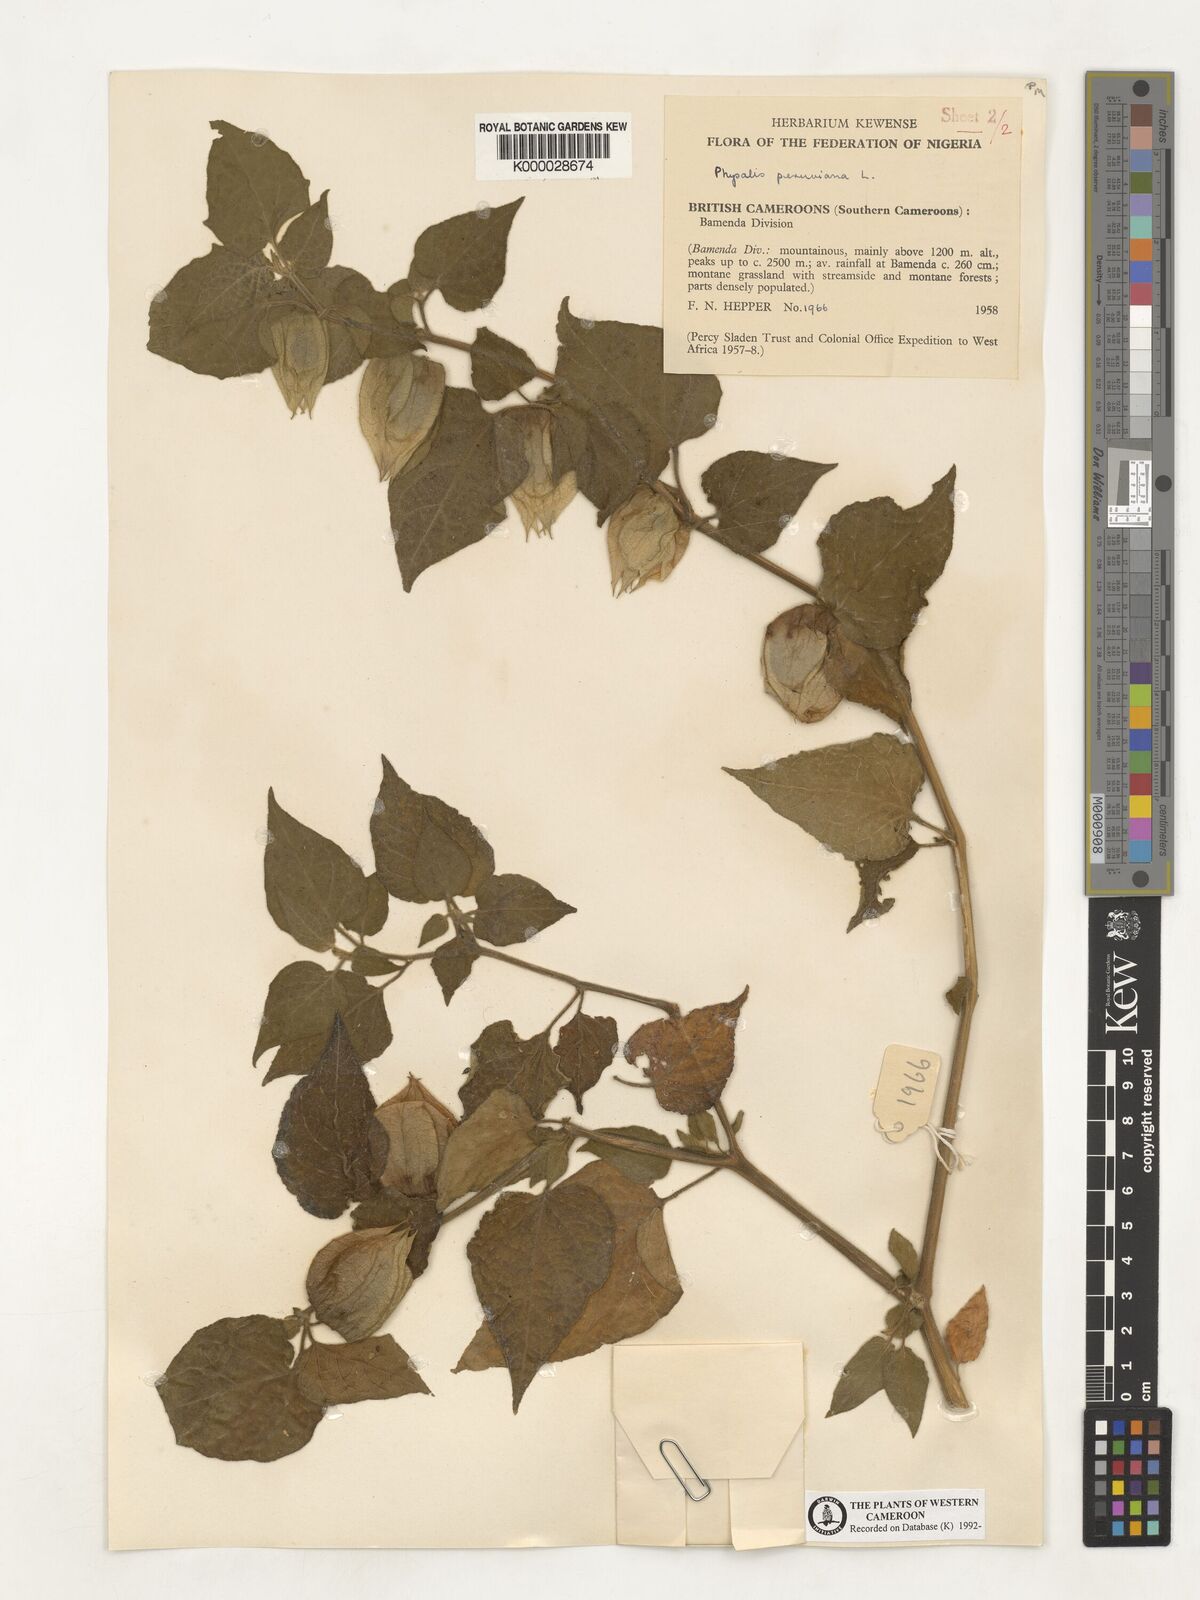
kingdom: Plantae
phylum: Tracheophyta
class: Magnoliopsida
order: Solanales
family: Solanaceae
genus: Physalis
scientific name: Physalis peruviana
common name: Cape-gooseberry
